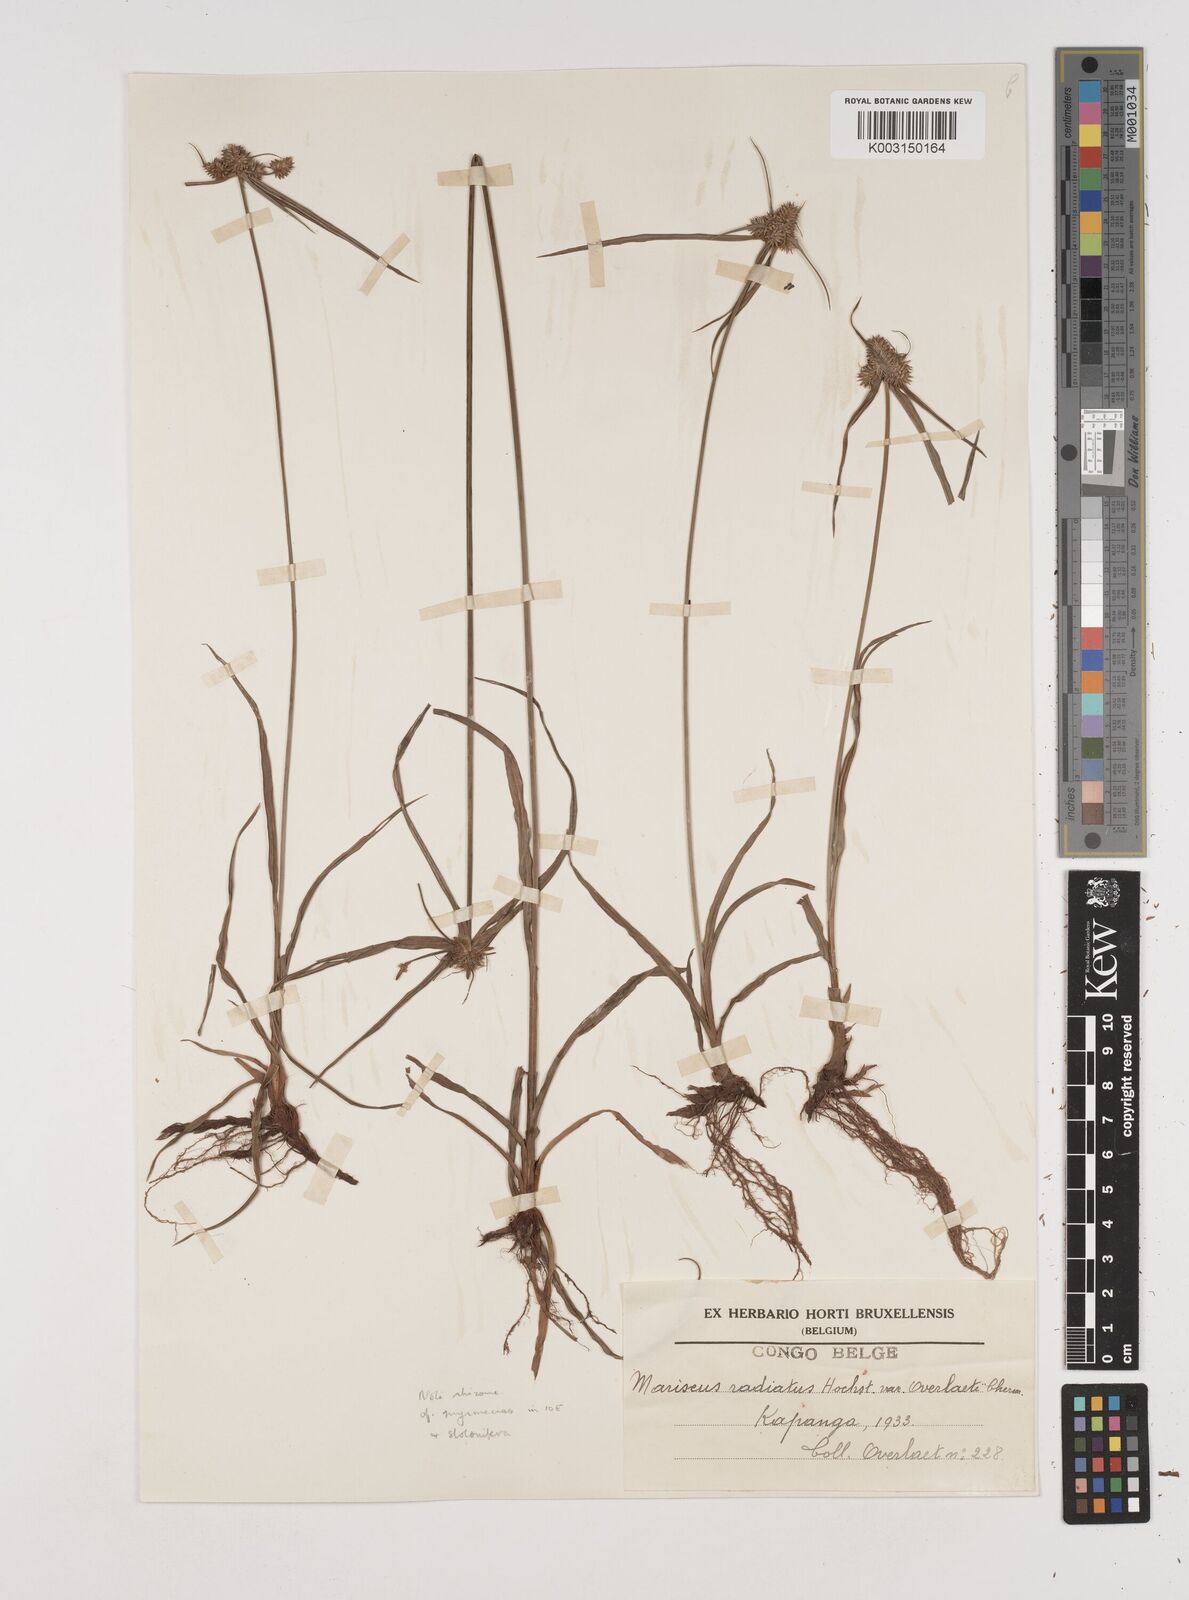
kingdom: Plantae
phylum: Tracheophyta
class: Liliopsida
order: Poales
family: Cyperaceae
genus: Cyperus
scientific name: Cyperus
